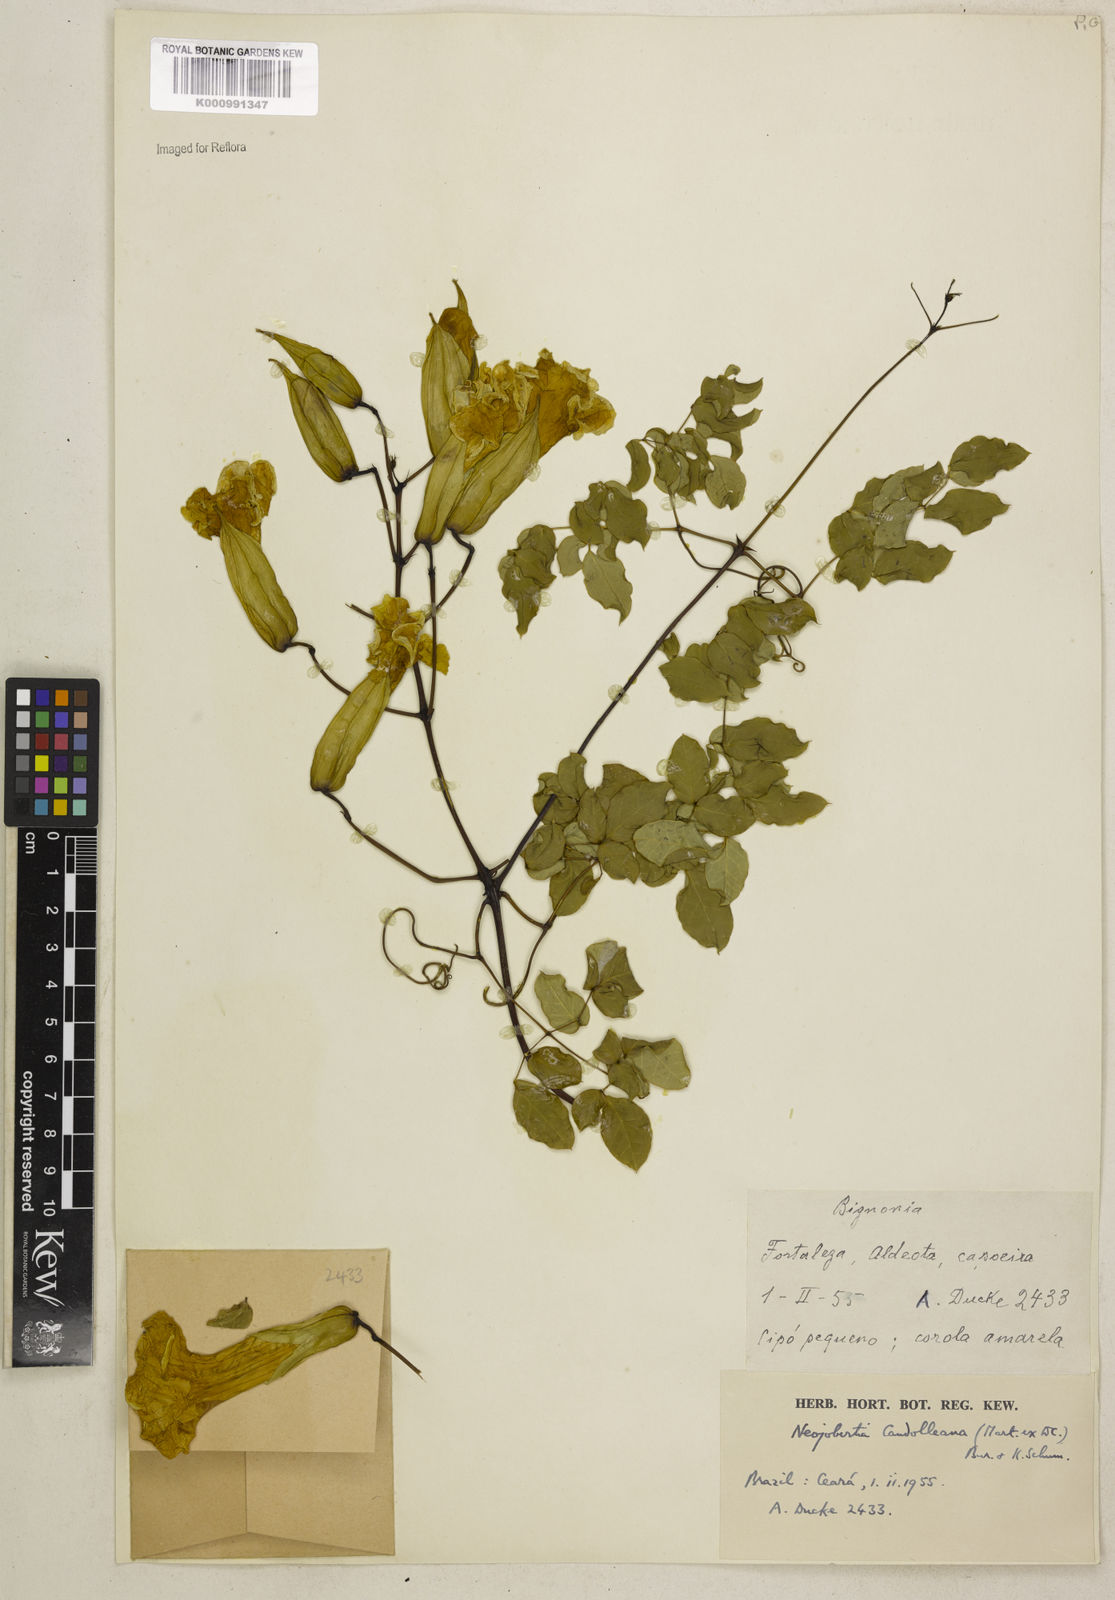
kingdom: Plantae
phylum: Tracheophyta
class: Magnoliopsida
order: Lamiales
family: Bignoniaceae
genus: Adenocalymma
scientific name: Adenocalymma candolleanum
